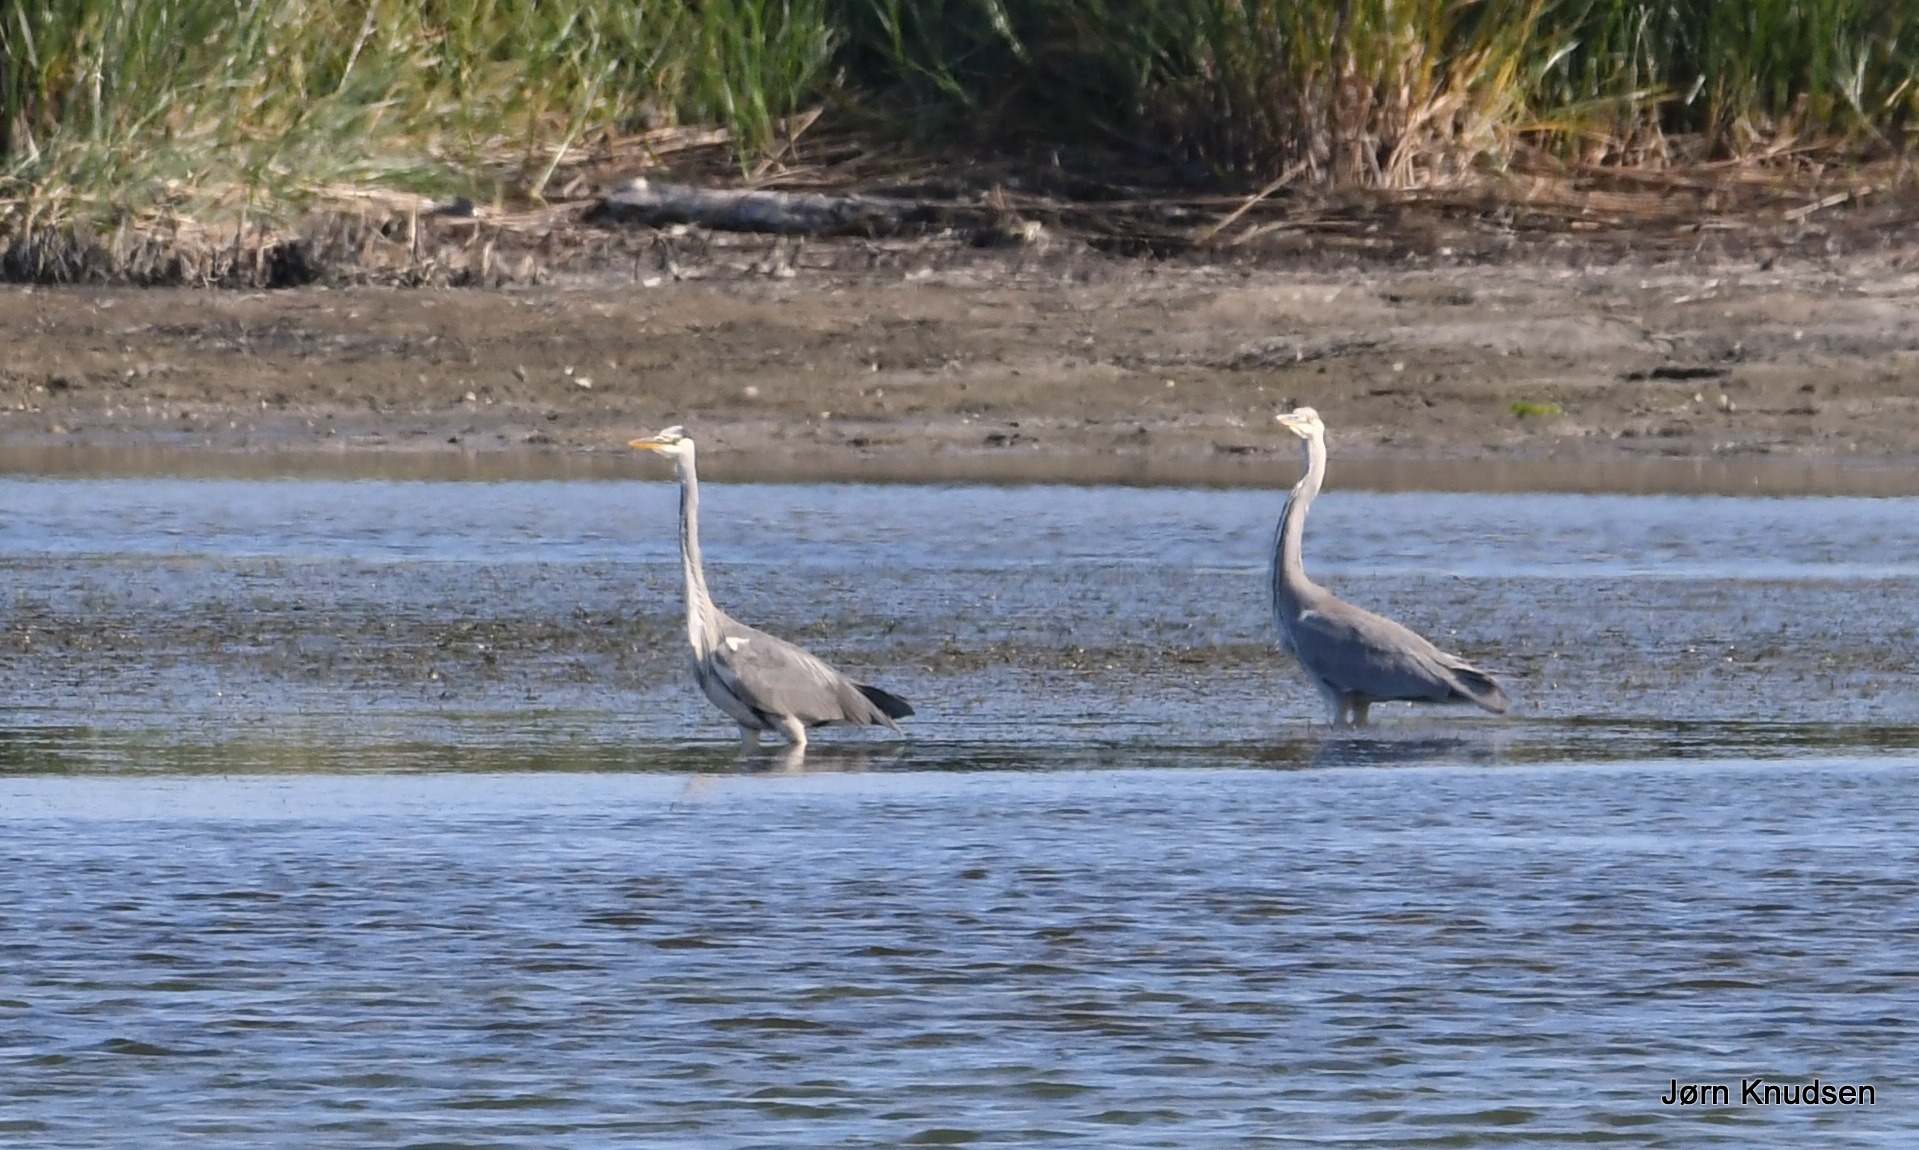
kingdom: Animalia
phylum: Chordata
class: Aves
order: Pelecaniformes
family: Ardeidae
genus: Ardea
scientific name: Ardea cinerea
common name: Fiskehejre
